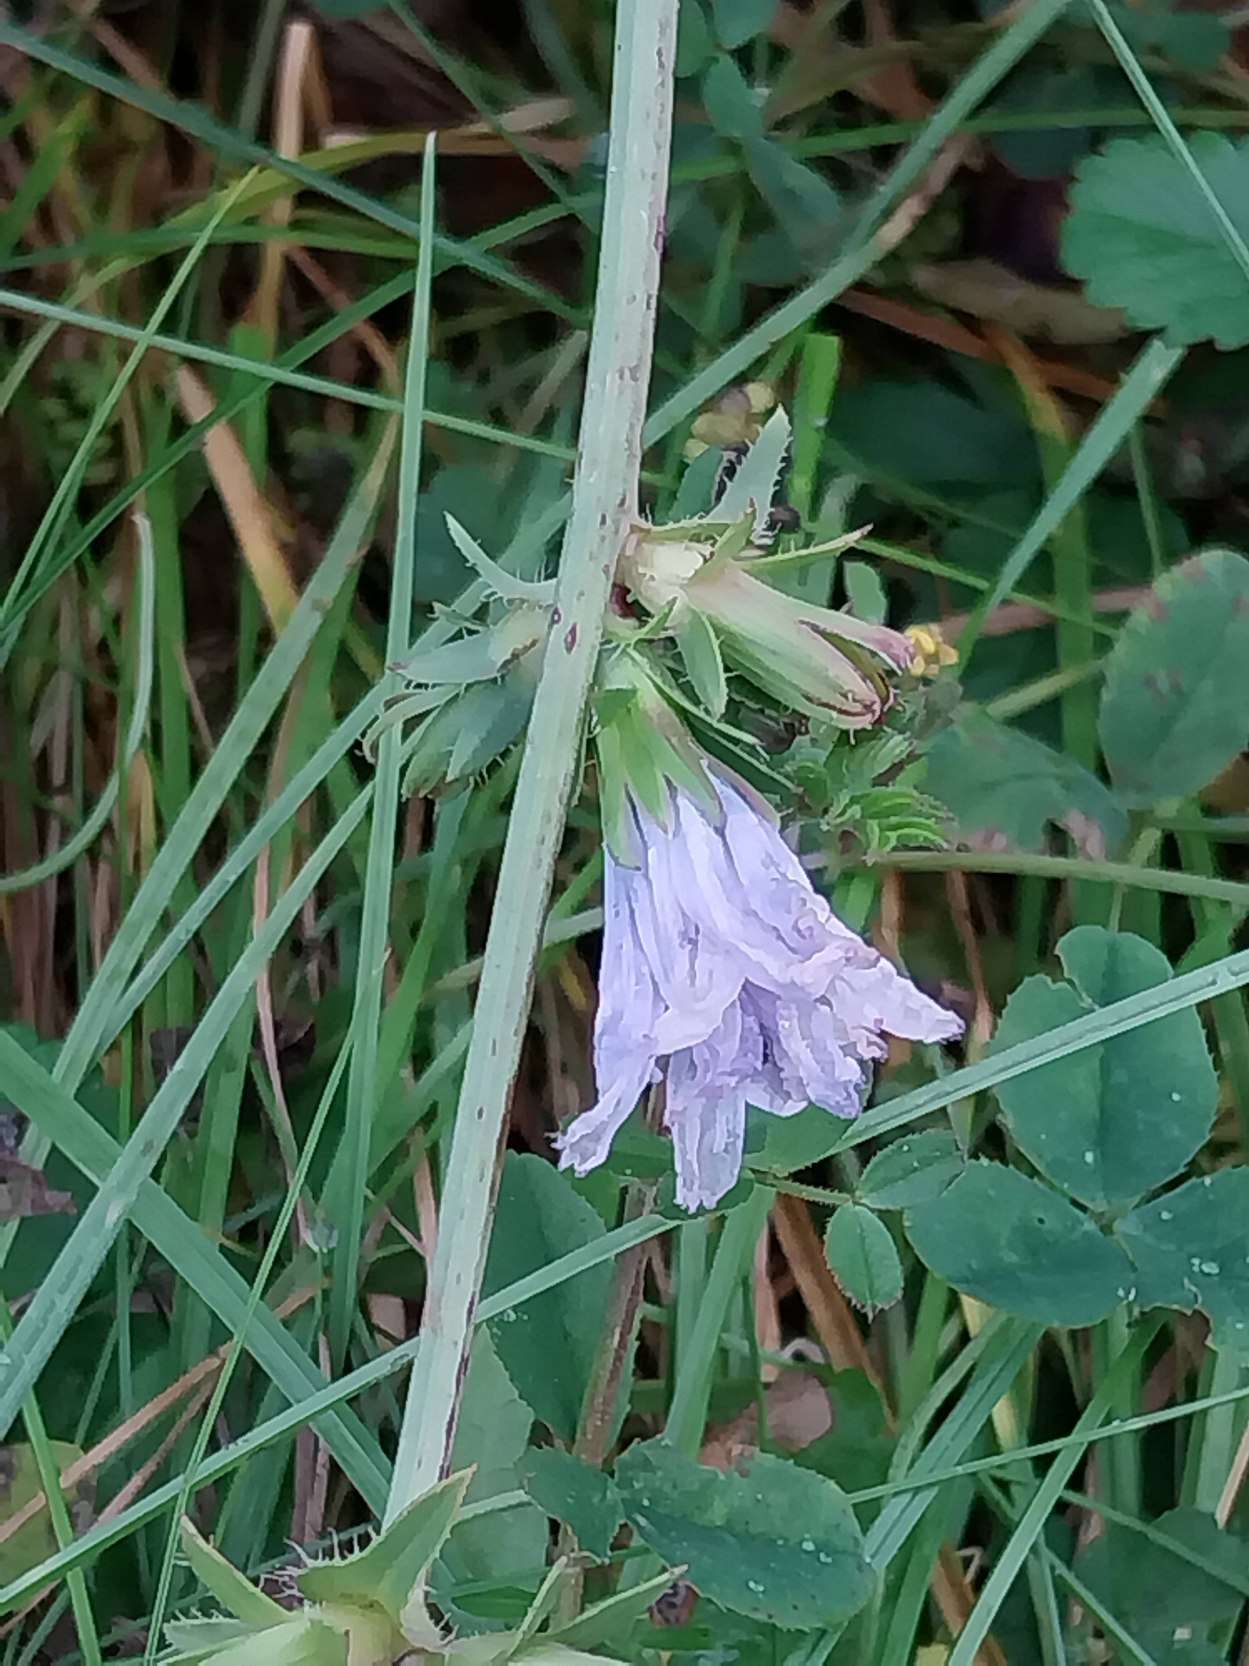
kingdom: Plantae
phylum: Tracheophyta
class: Magnoliopsida
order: Asterales
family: Asteraceae
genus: Cichorium
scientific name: Cichorium intybus
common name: Cikorie
